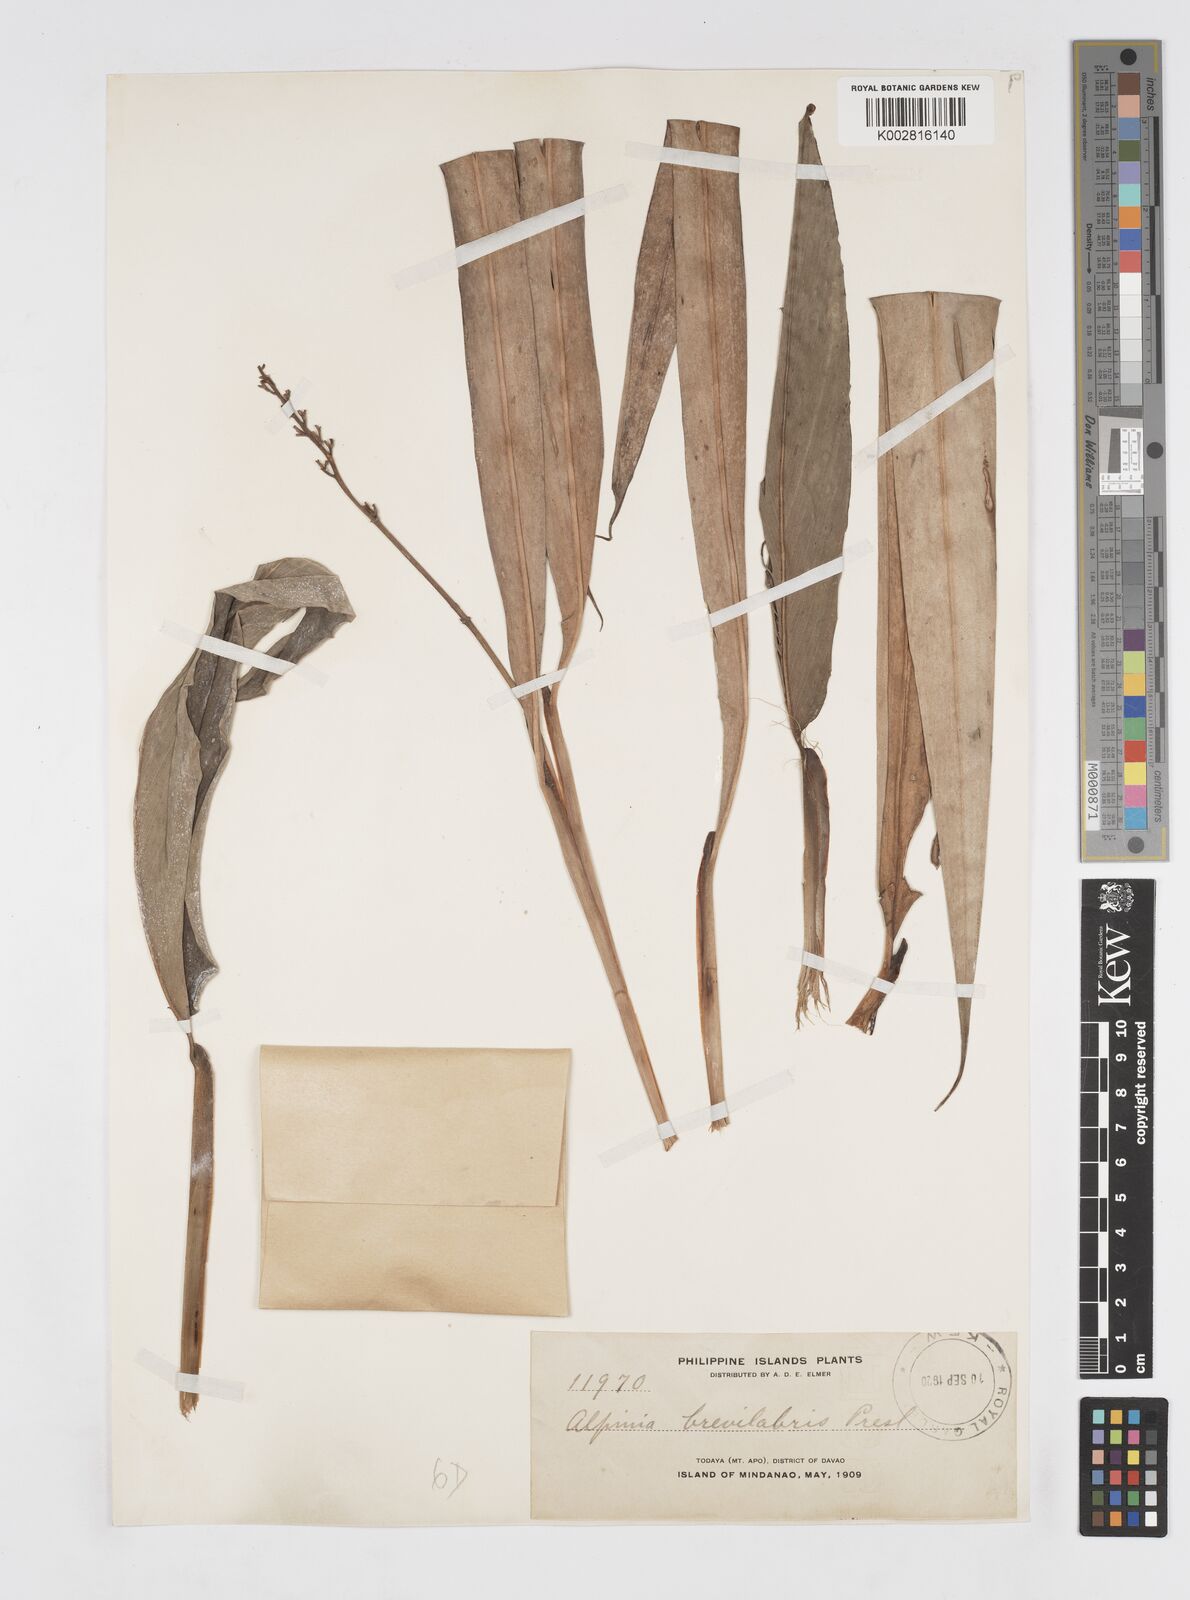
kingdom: Plantae
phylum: Tracheophyta
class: Liliopsida
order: Zingiberales
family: Zingiberaceae
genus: Alpinia
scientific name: Alpinia brevilabris
